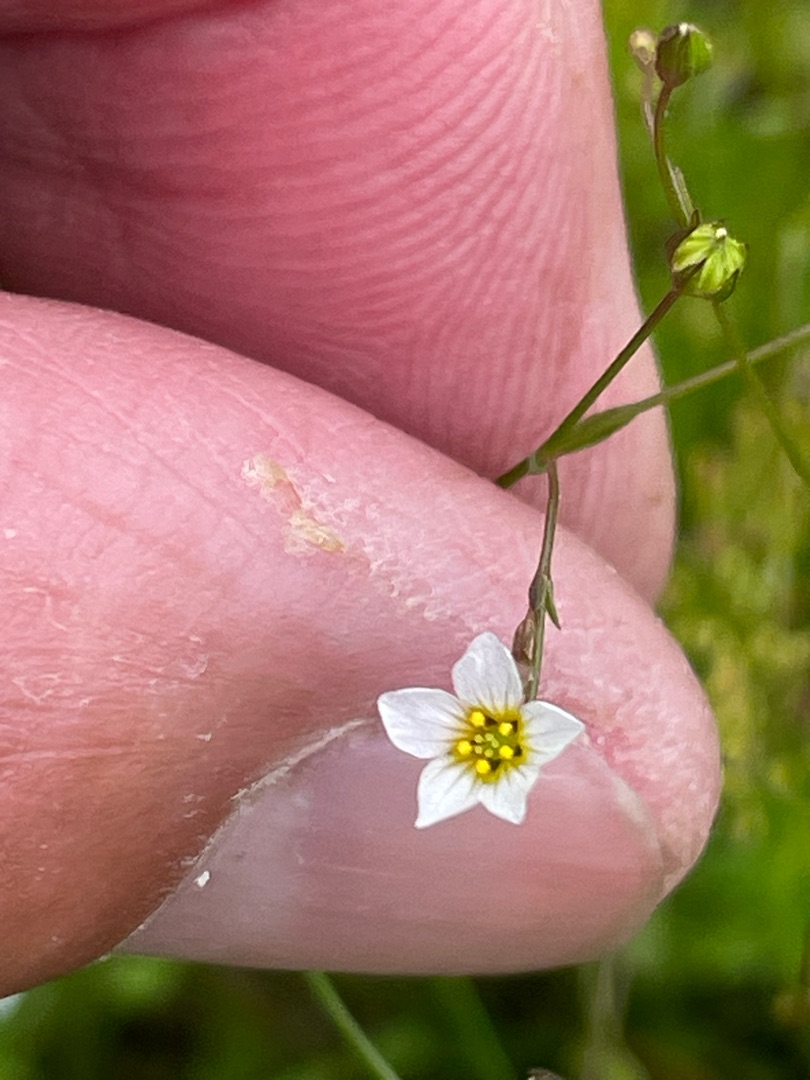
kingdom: Plantae
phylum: Tracheophyta
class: Magnoliopsida
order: Malpighiales
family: Linaceae
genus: Linum
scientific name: Linum catharticum
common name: Vild hør
